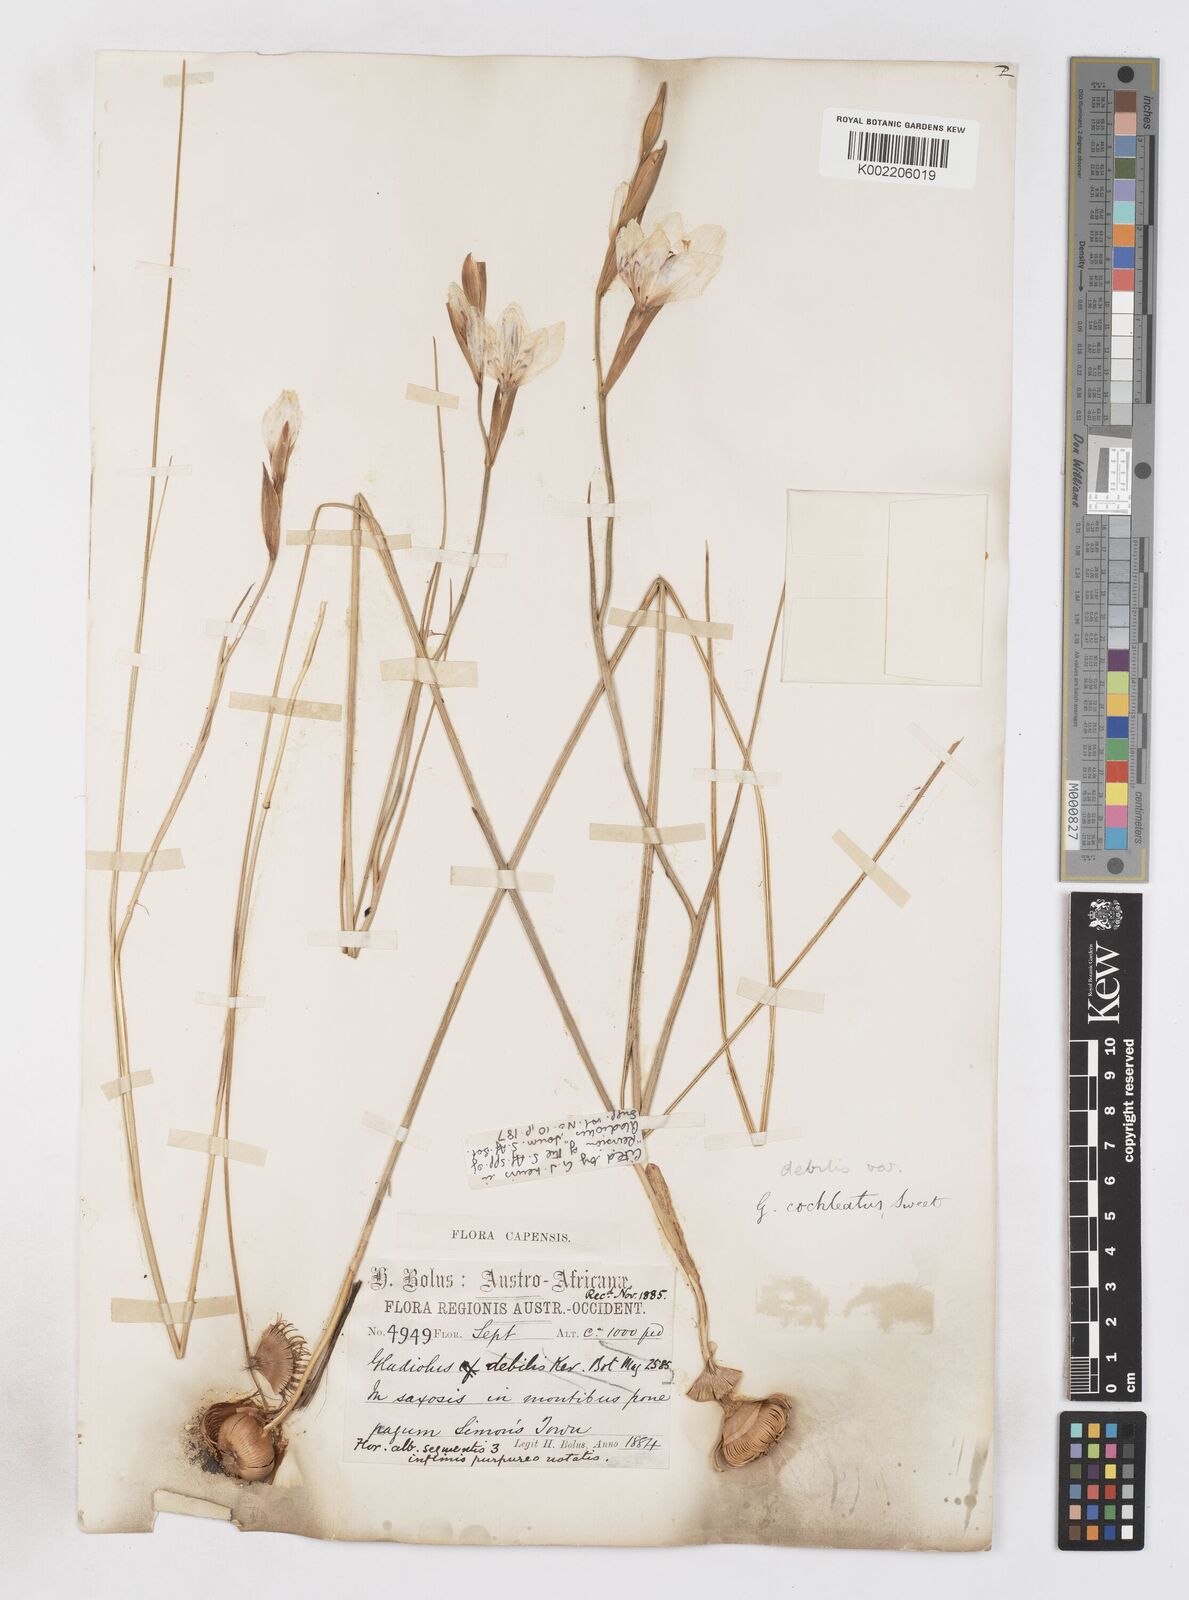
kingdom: Plantae
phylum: Tracheophyta
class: Liliopsida
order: Asparagales
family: Iridaceae
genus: Gladiolus
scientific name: Gladiolus debilis
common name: Painted-lady
